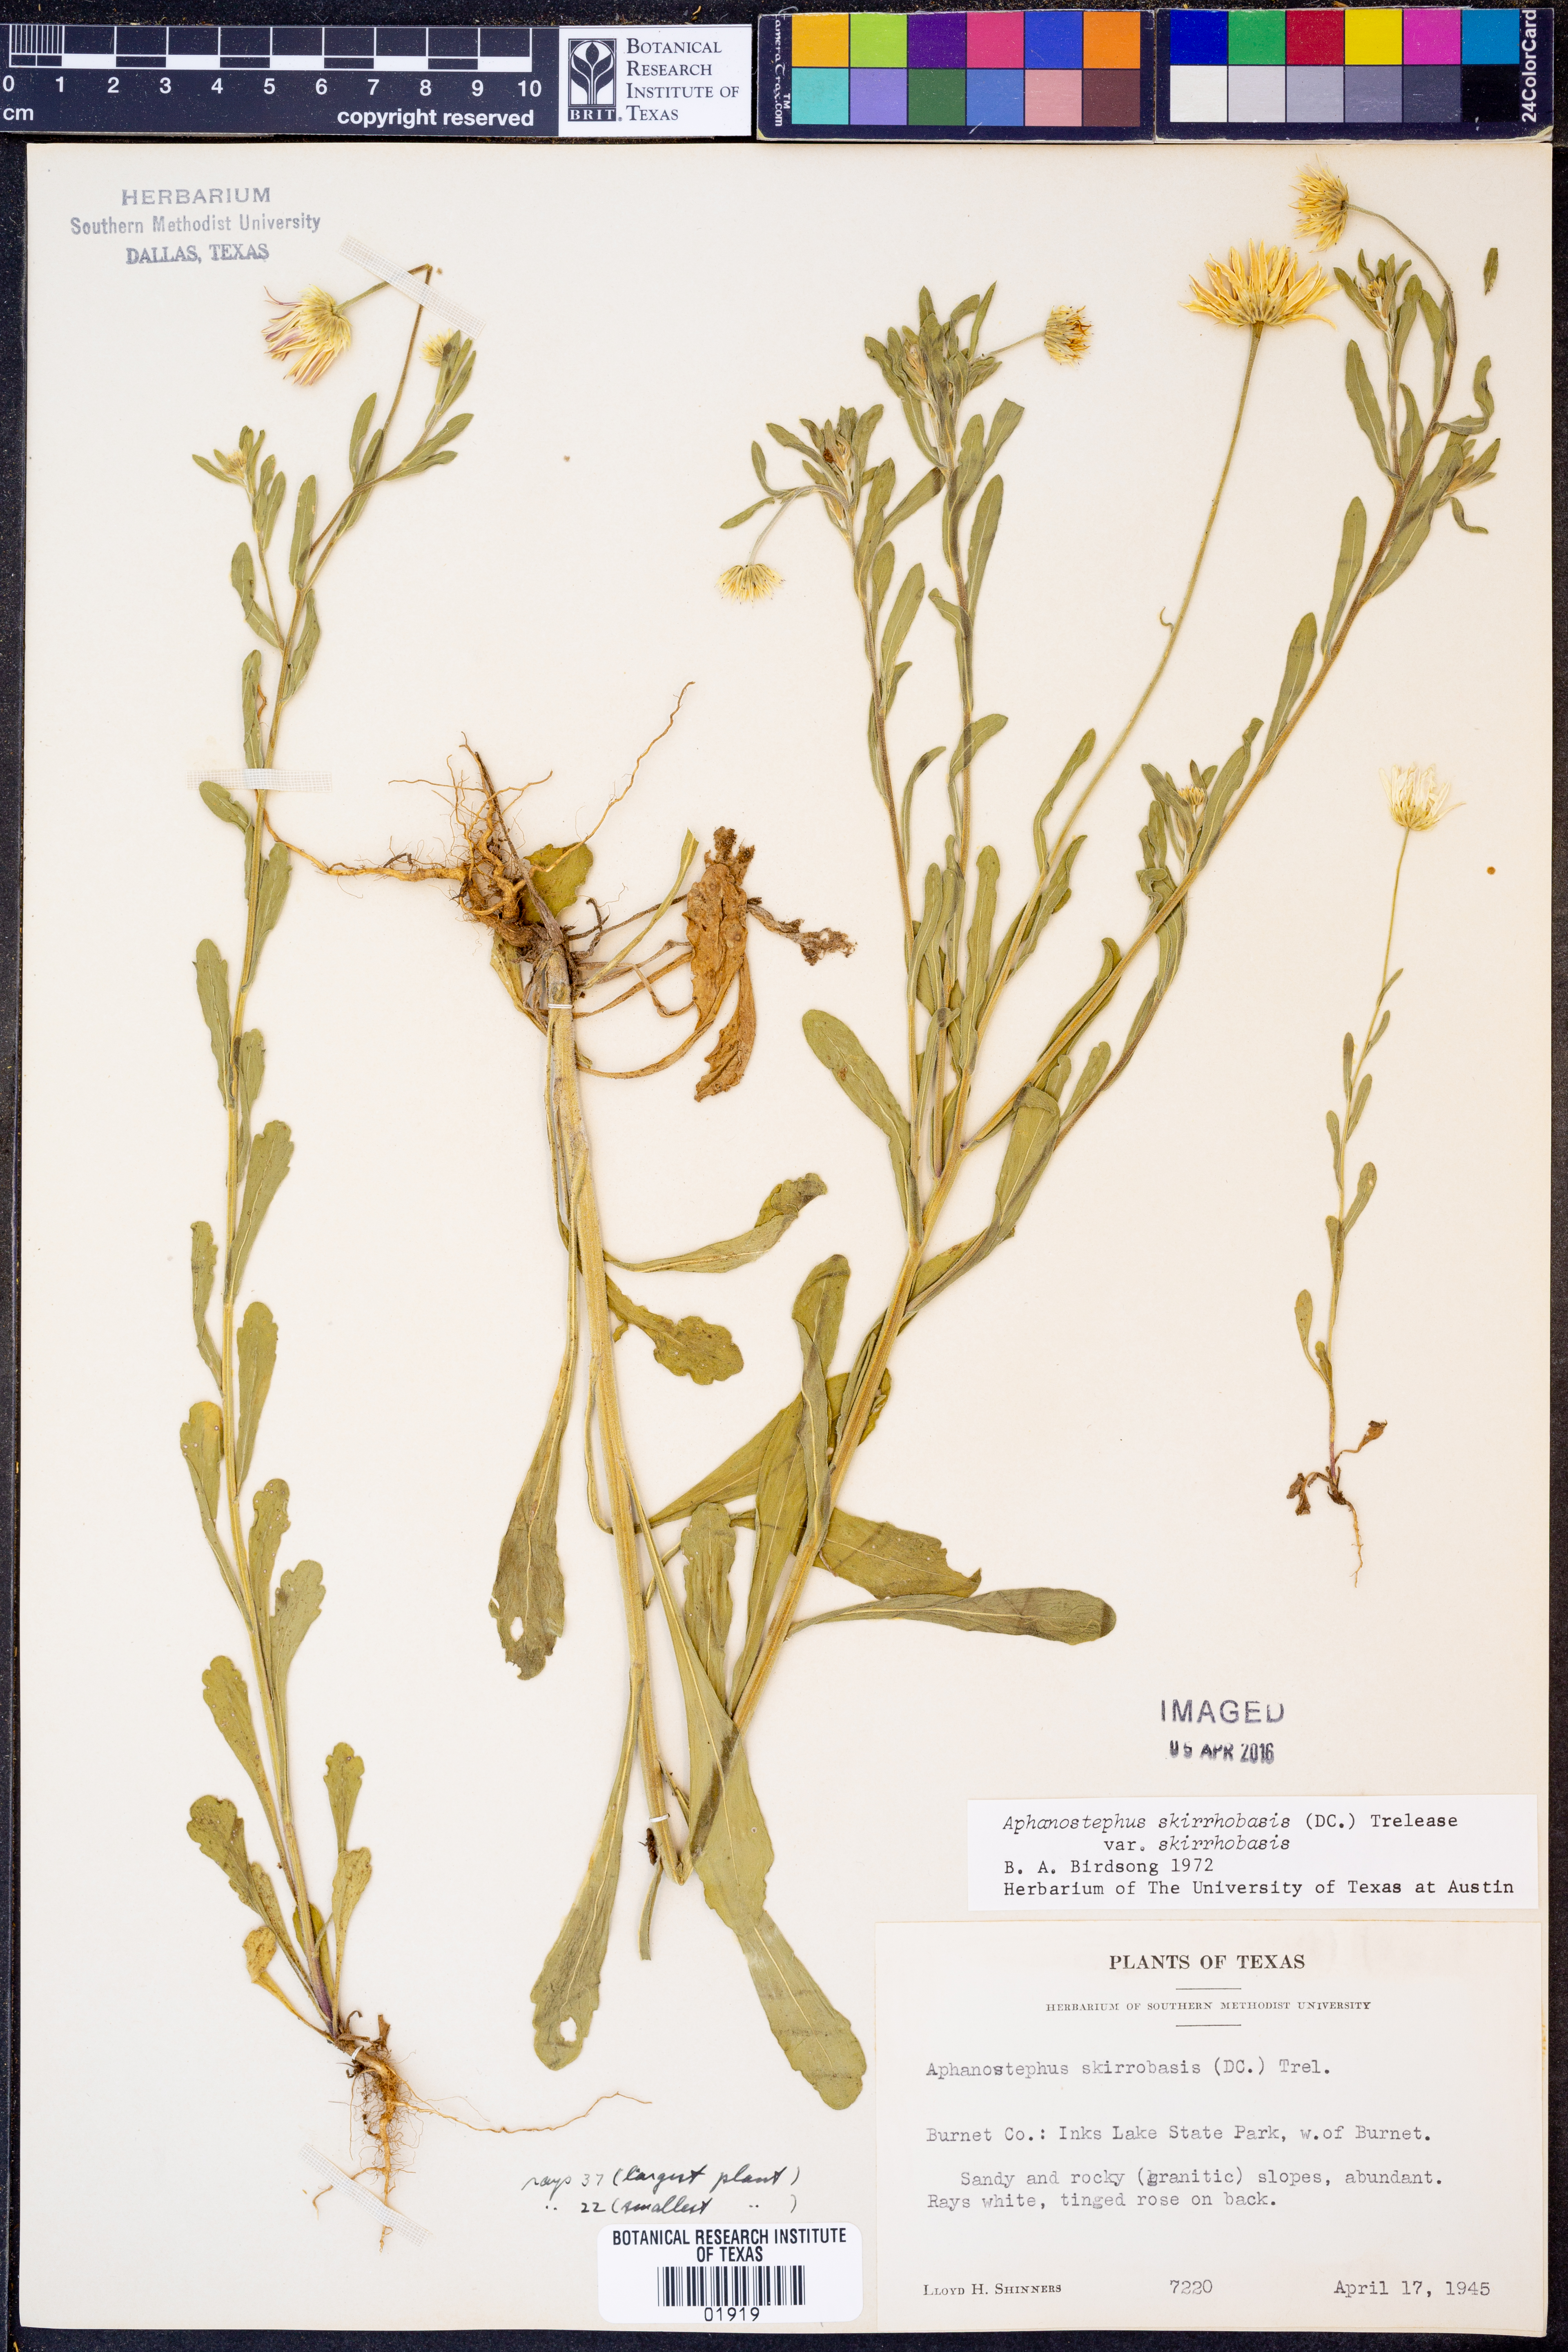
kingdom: Plantae
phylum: Tracheophyta
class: Magnoliopsida
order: Asterales
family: Asteraceae
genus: Aphanostephus
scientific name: Aphanostephus skirrhobasis
